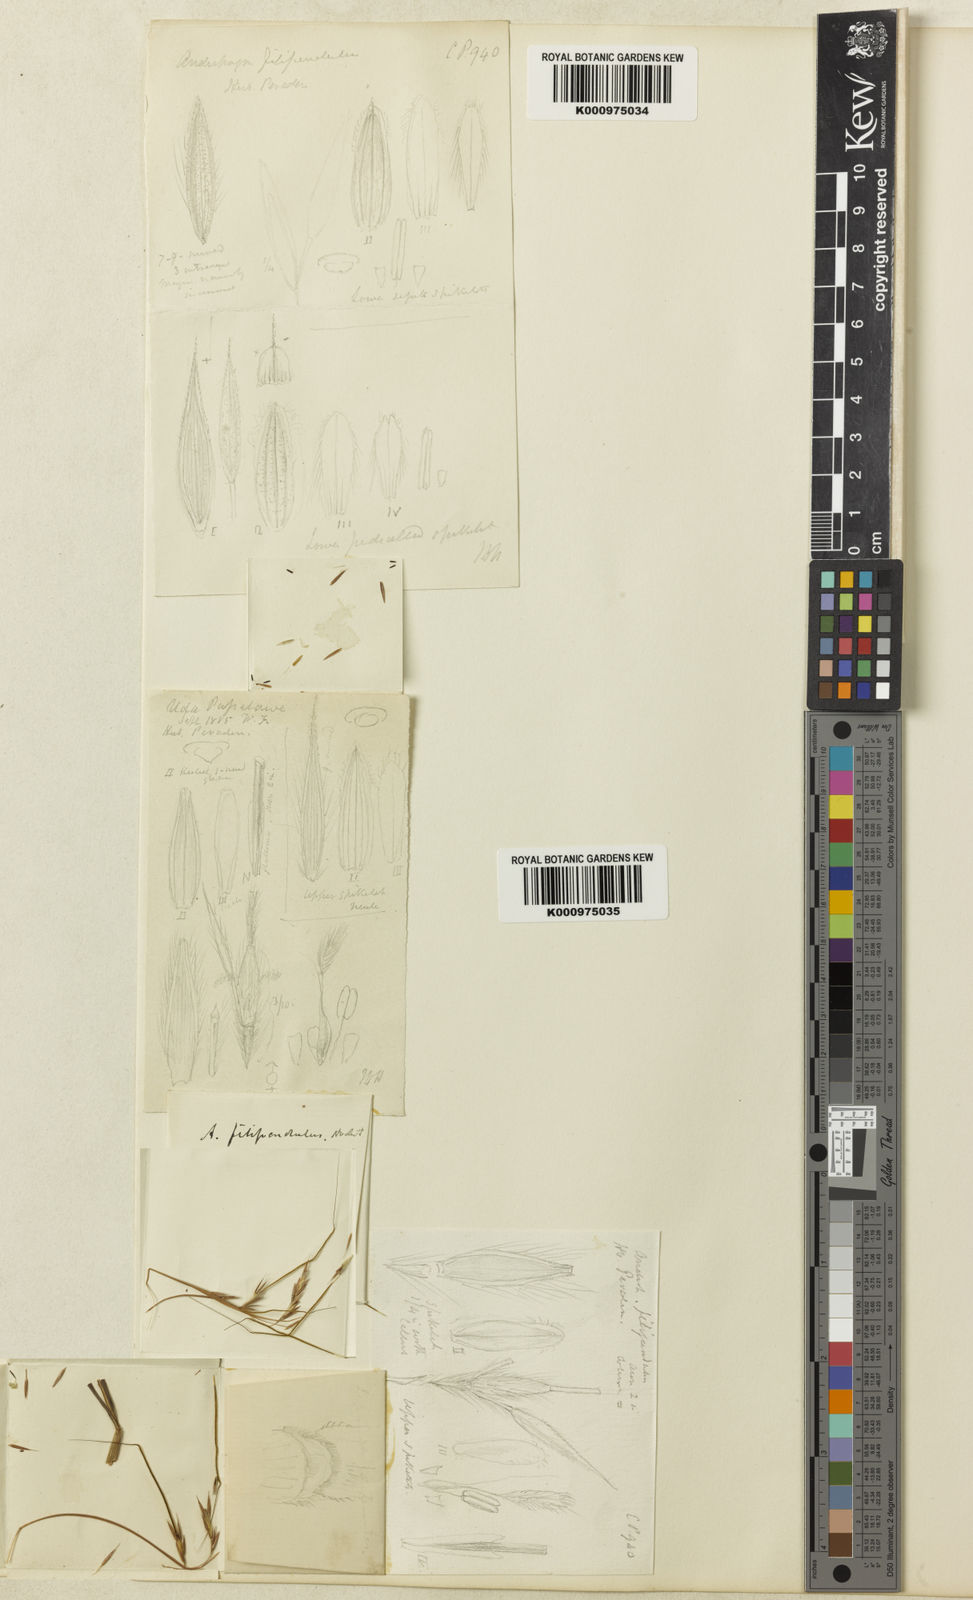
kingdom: Plantae
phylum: Tracheophyta
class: Liliopsida
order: Poales
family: Poaceae
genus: Hyparrhenia
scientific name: Hyparrhenia filipendula
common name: Tambookie grass
